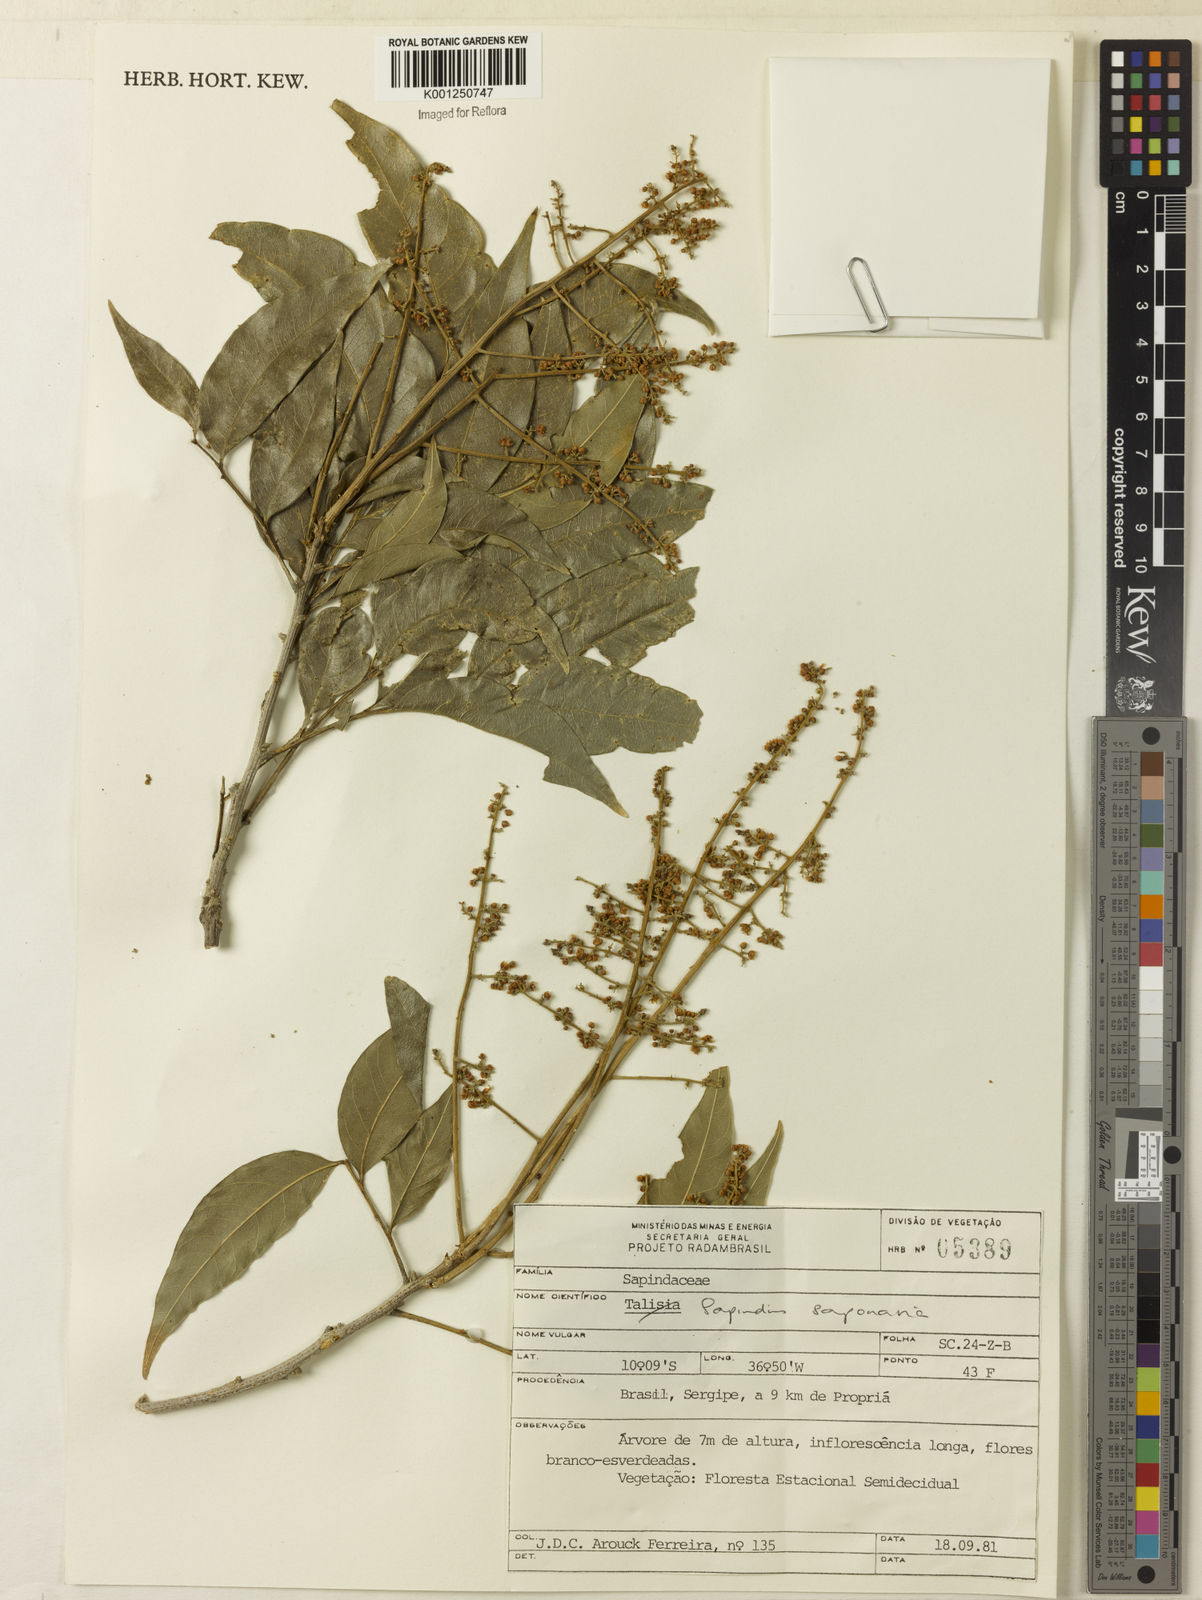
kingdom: Plantae
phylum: Tracheophyta
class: Magnoliopsida
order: Sapindales
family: Sapindaceae
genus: Sapindus
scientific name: Sapindus
